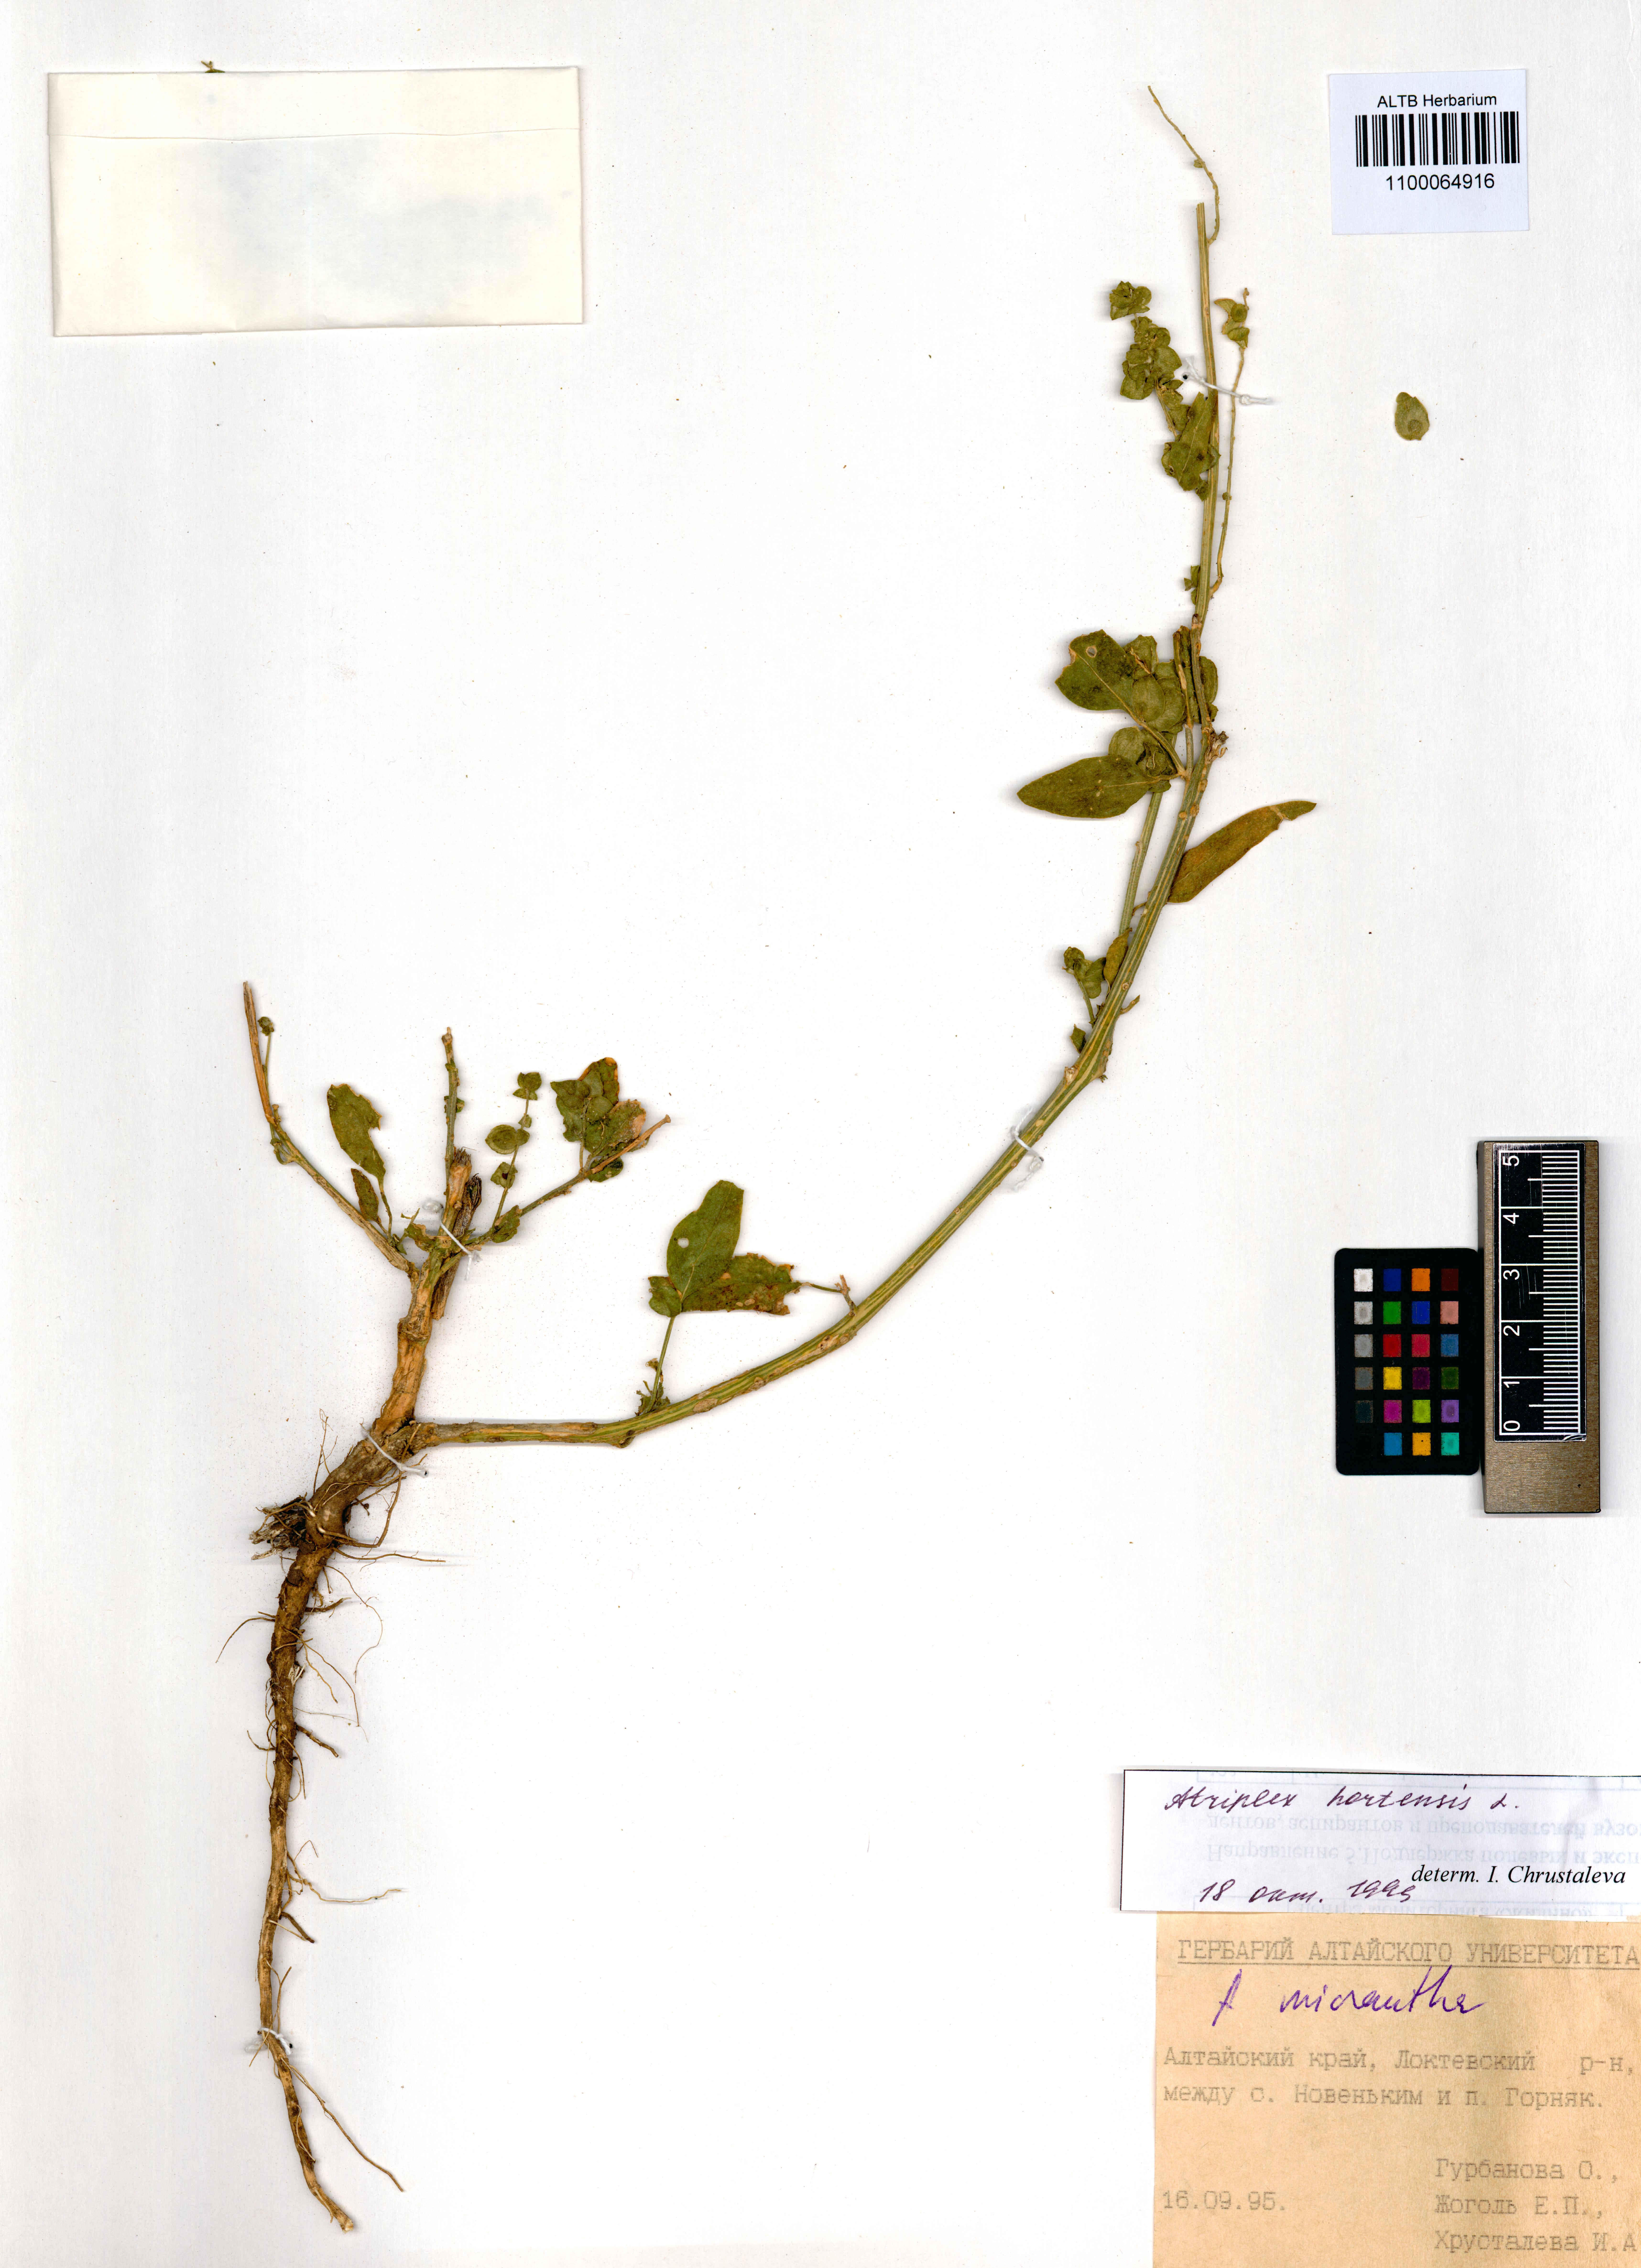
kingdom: Plantae
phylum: Tracheophyta
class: Magnoliopsida
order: Caryophyllales
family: Amaranthaceae
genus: Atriplex
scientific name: Atriplex hortensis
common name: Garden orache
